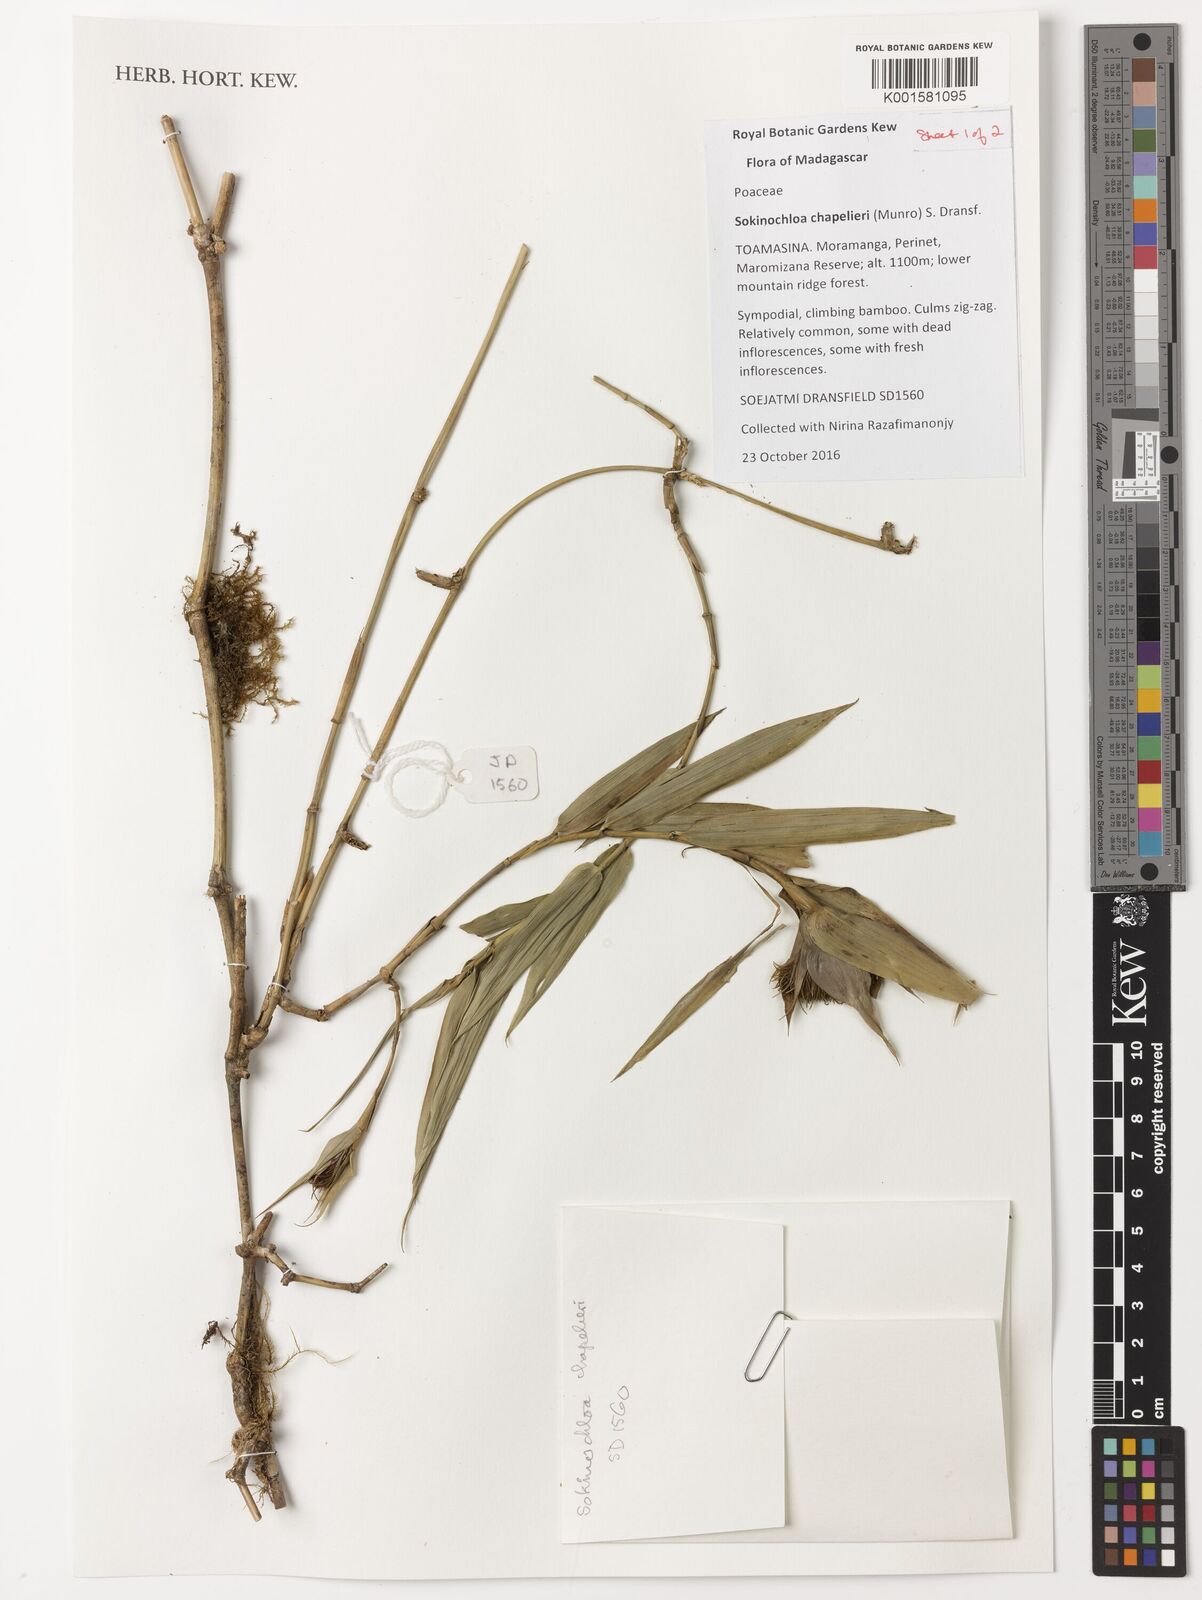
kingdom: Plantae
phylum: Tracheophyta
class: Liliopsida
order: Poales
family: Poaceae
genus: Sokinochloa
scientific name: Sokinochloa chapelieri
